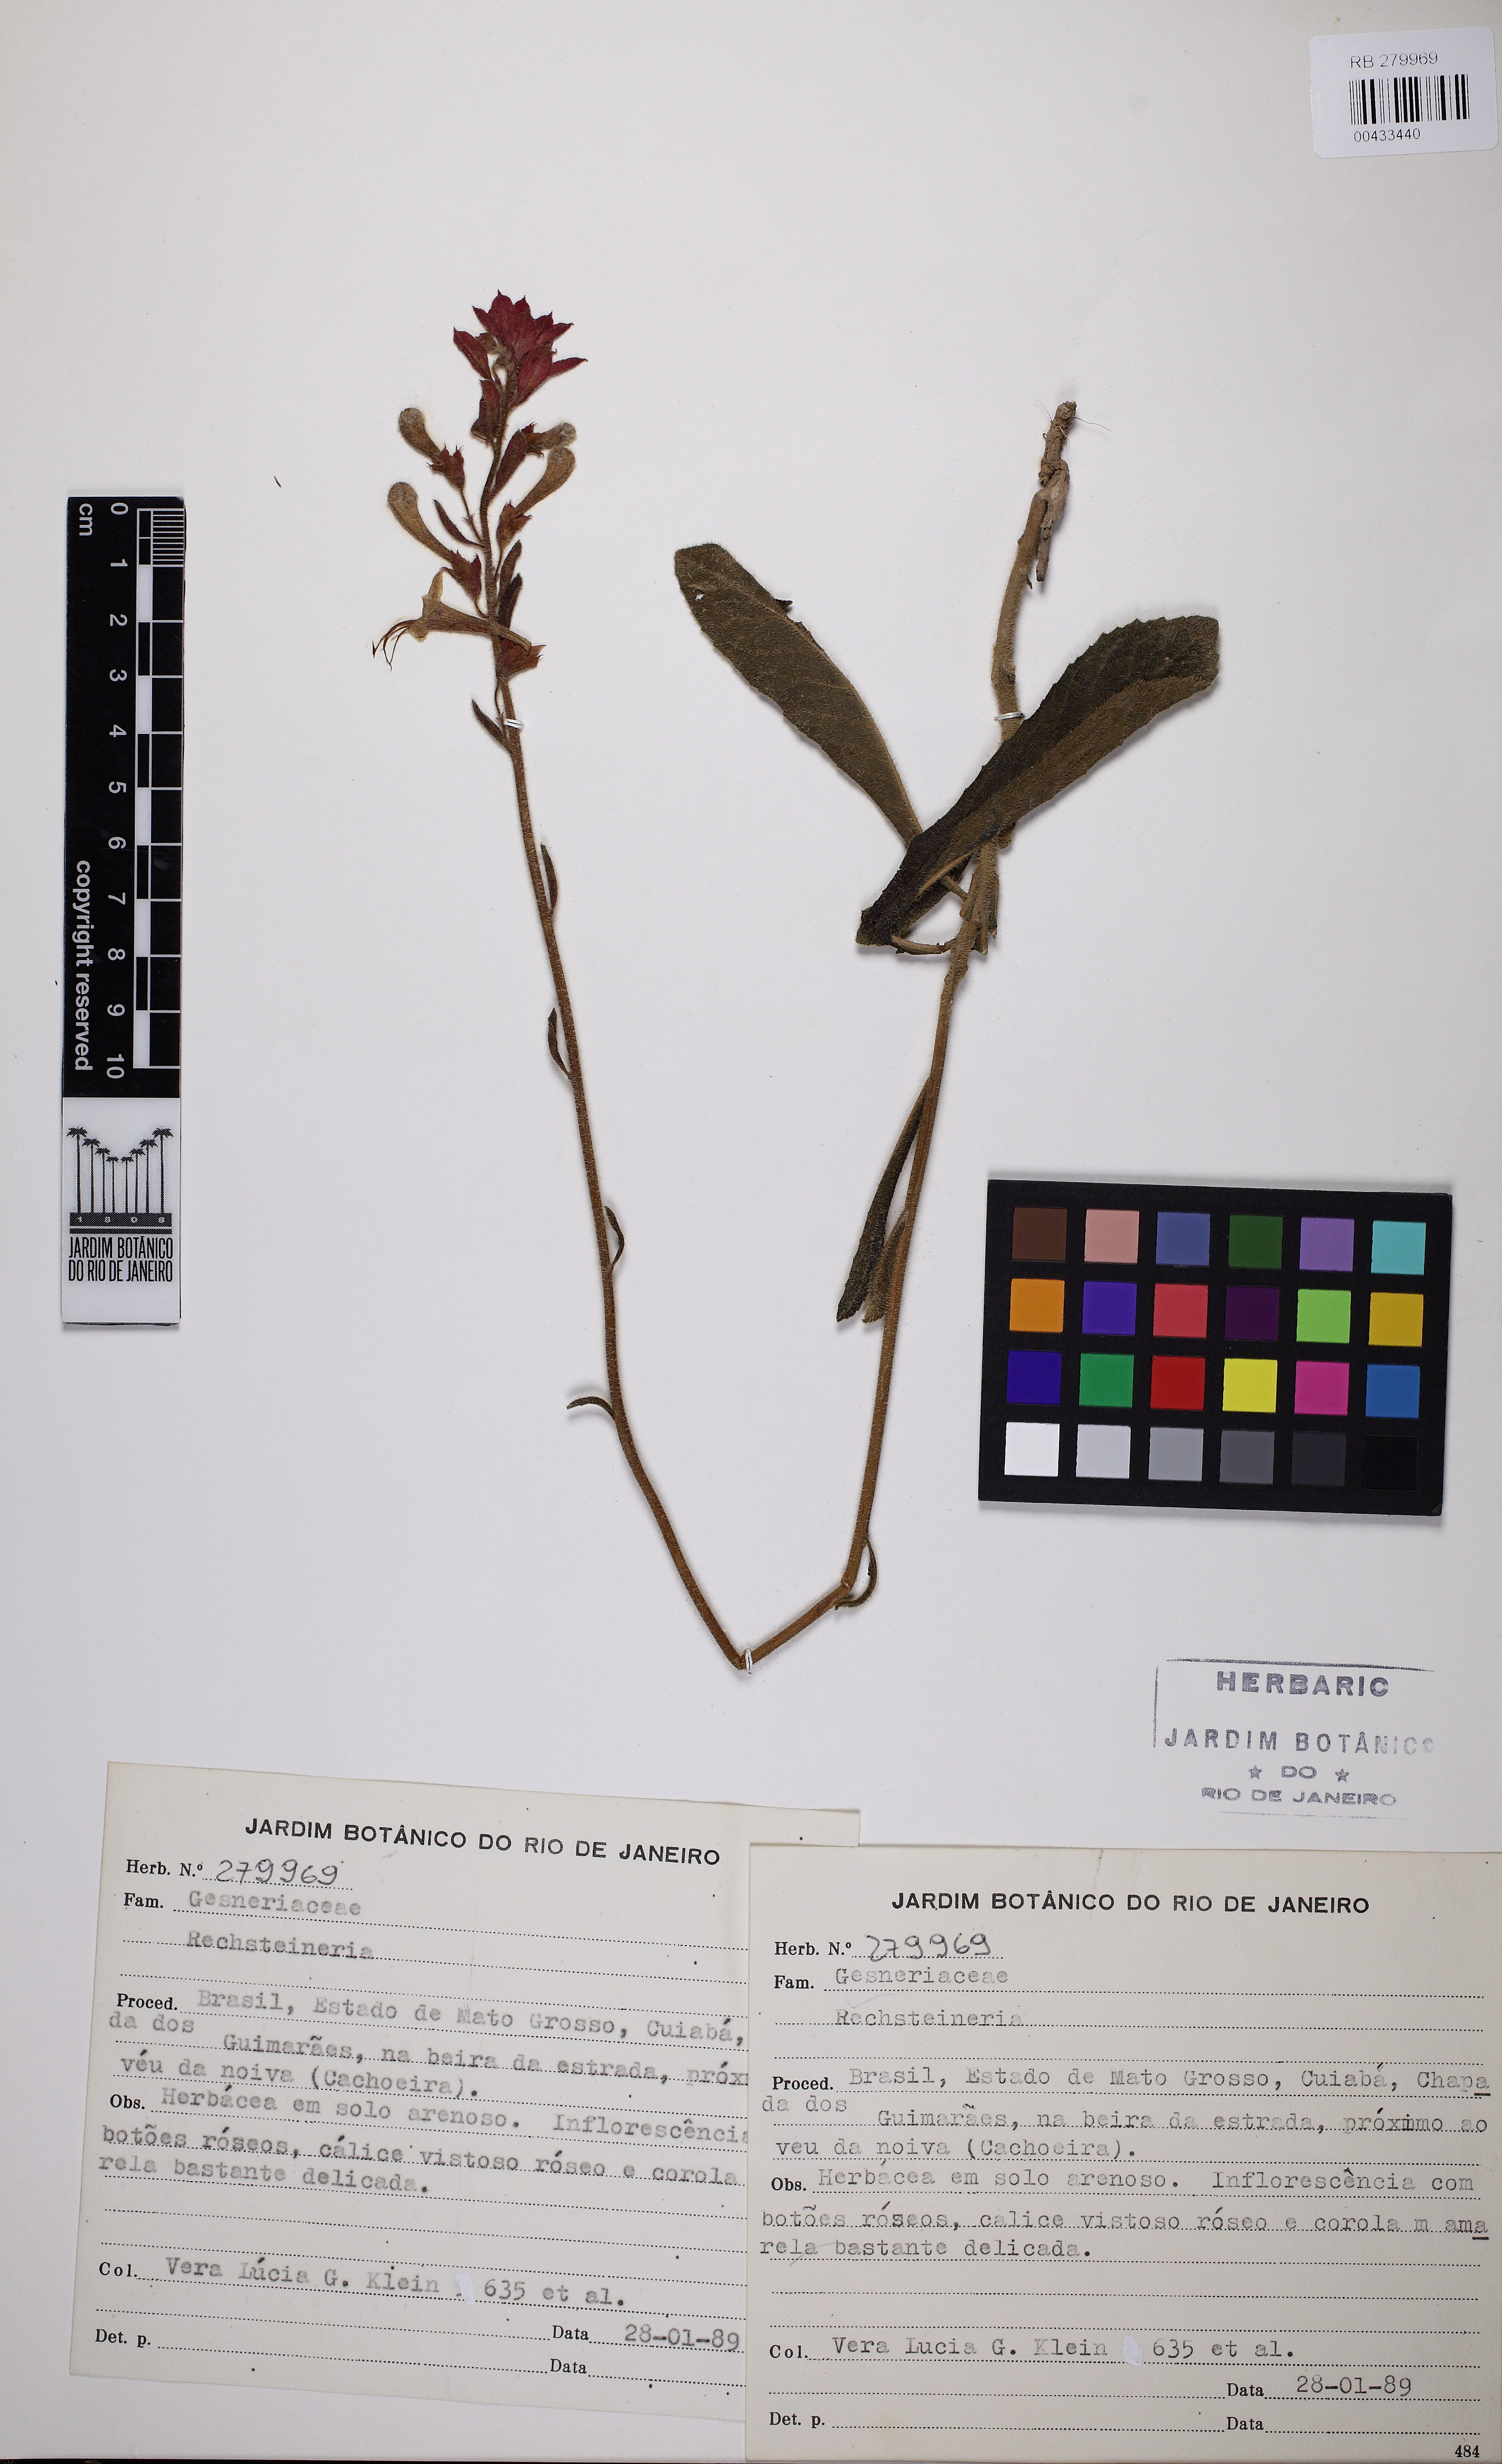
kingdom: Plantae
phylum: Tracheophyta
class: Magnoliopsida
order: Lamiales
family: Gesneriaceae
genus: Sinningia
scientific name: Sinningia
